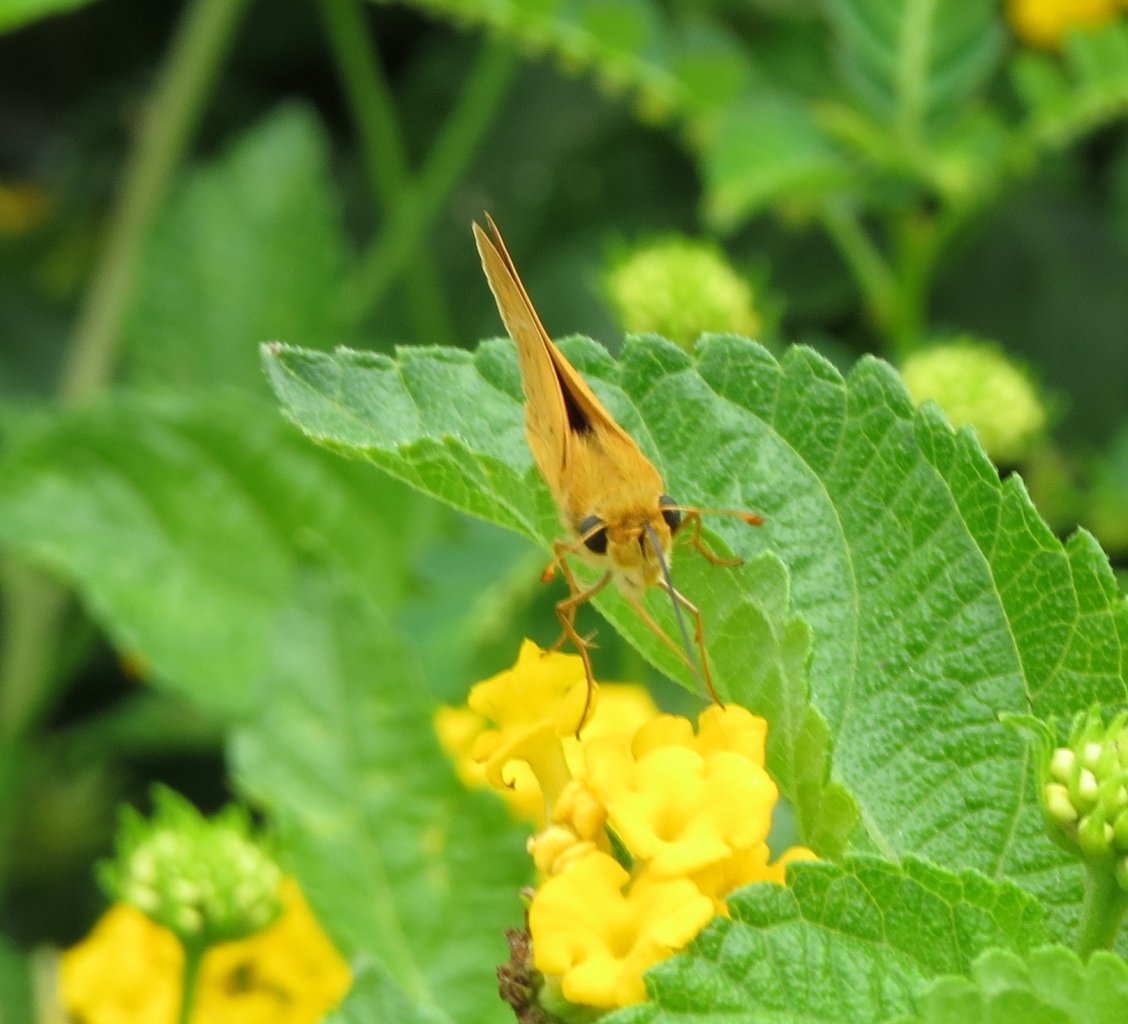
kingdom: Animalia
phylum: Arthropoda
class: Insecta
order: Lepidoptera
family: Hesperiidae
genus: Hylephila
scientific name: Hylephila phyleus
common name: Fiery Skipper
